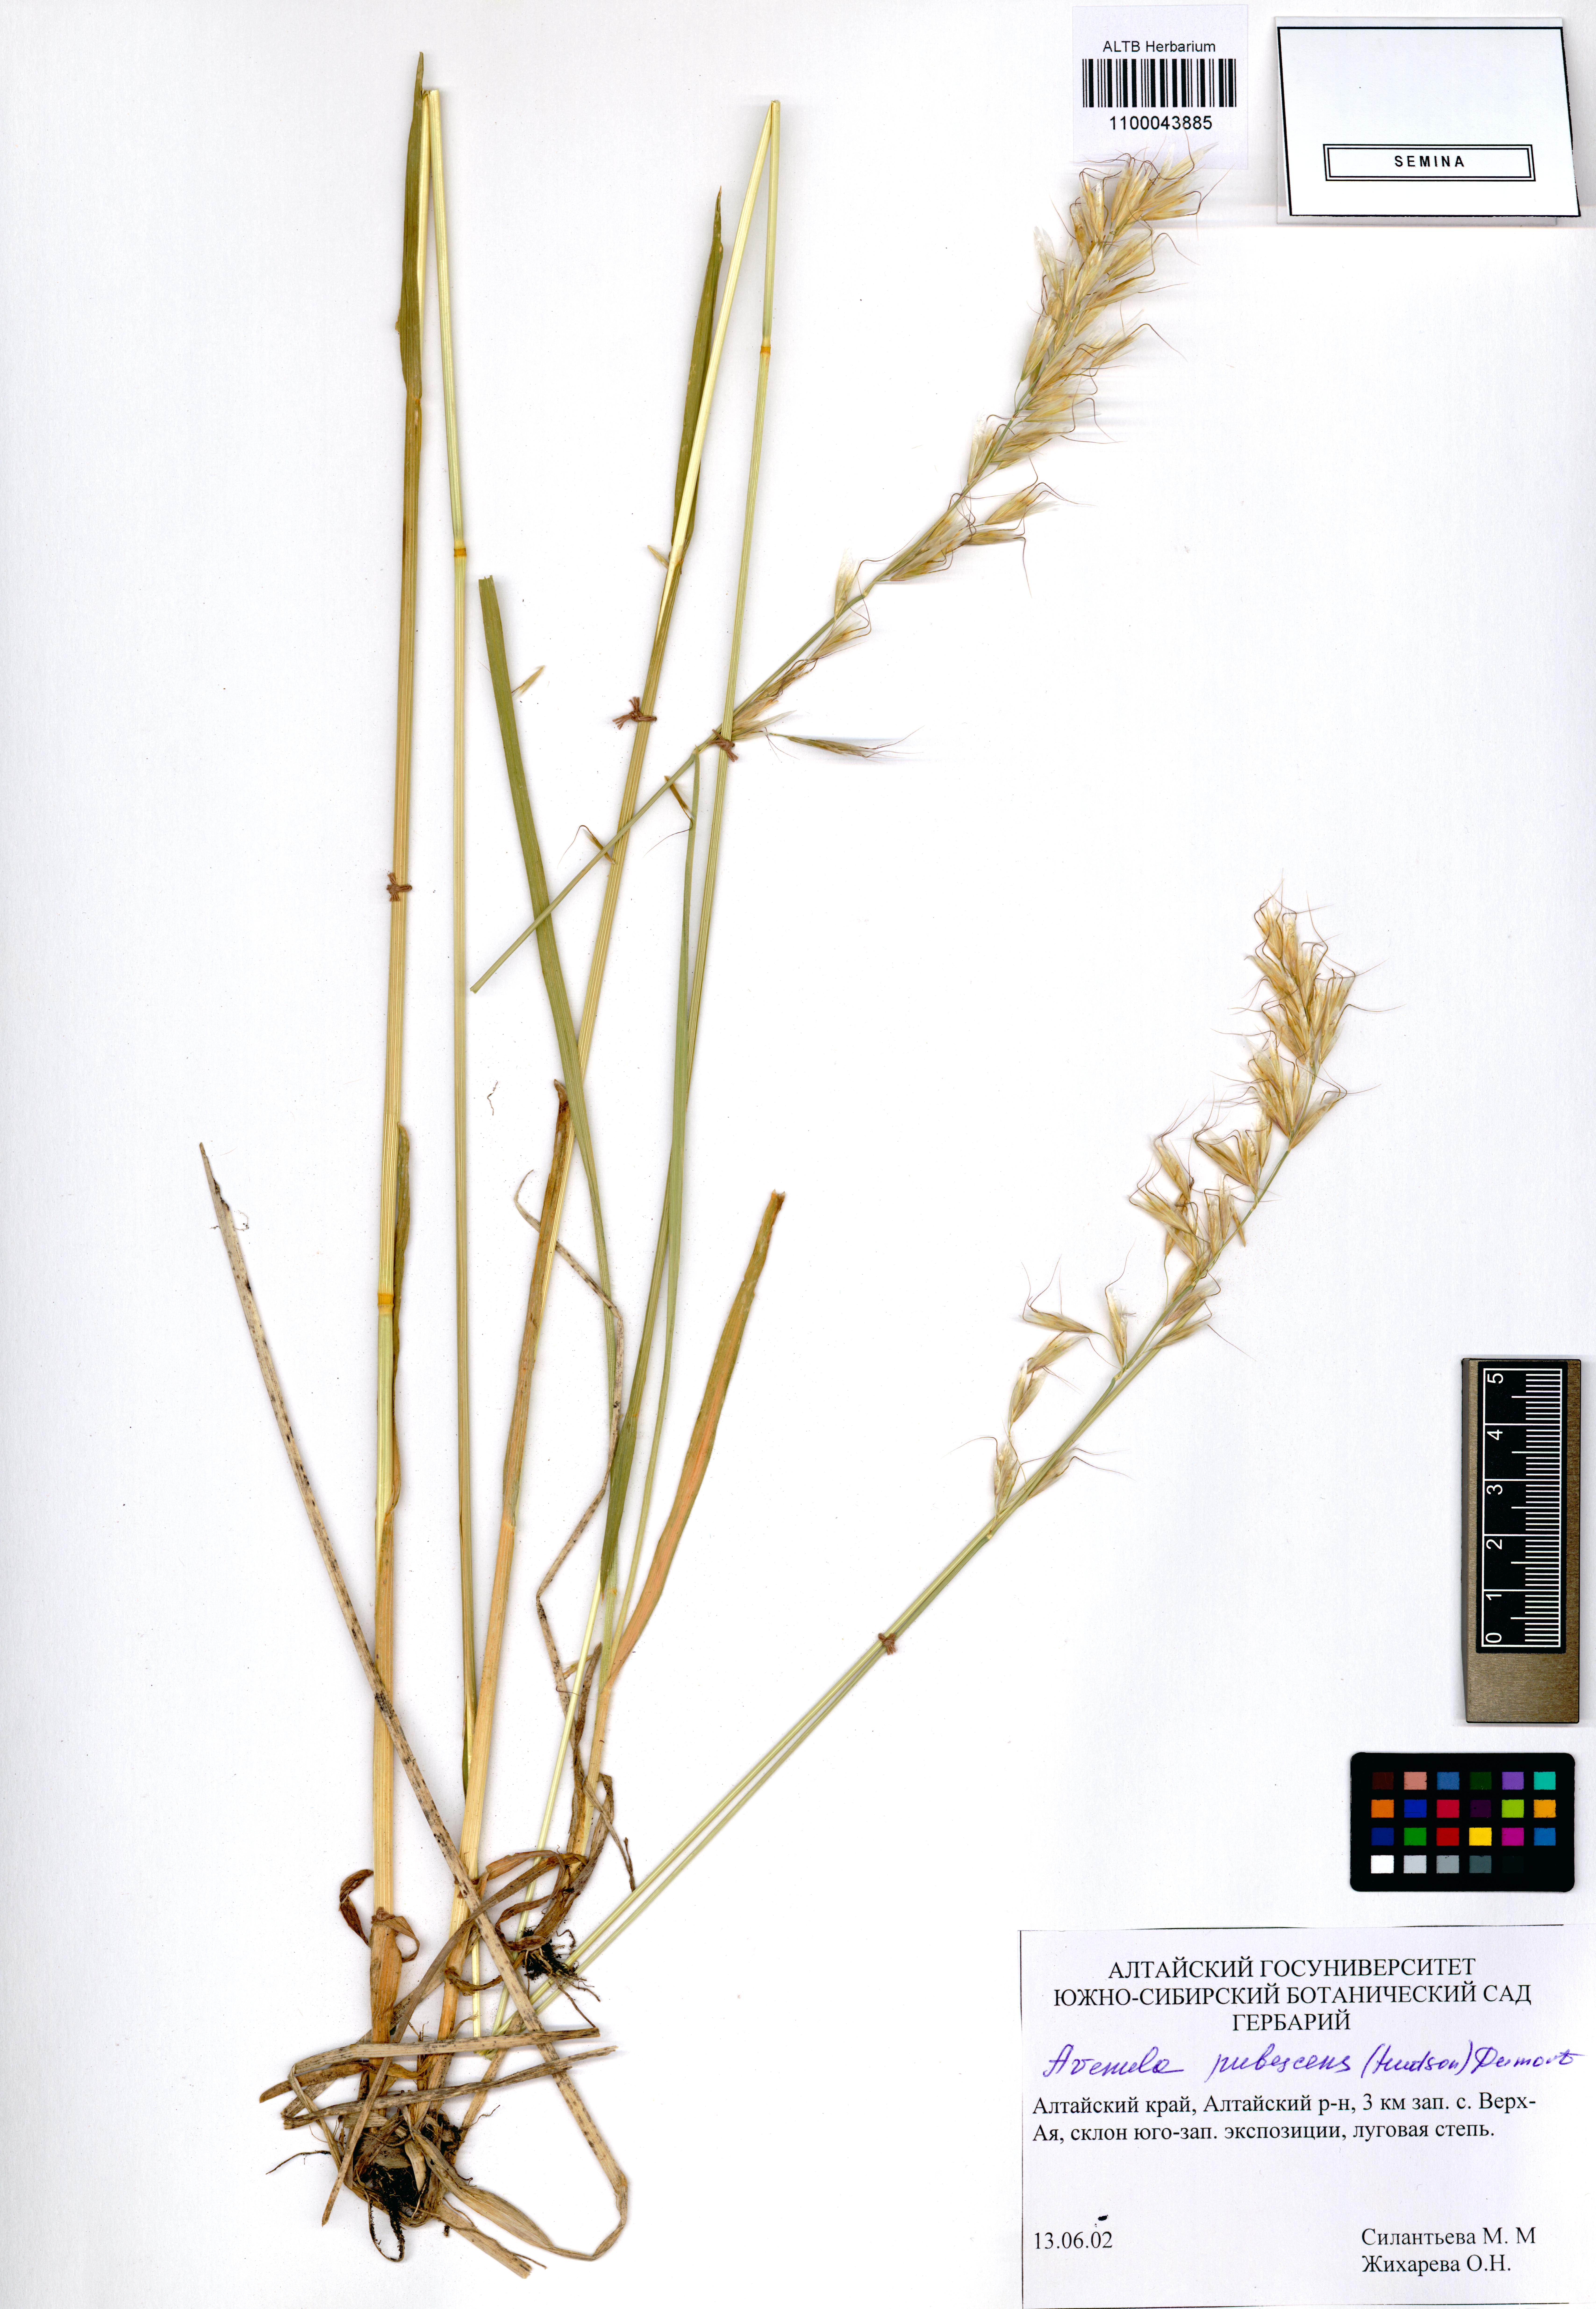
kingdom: Plantae
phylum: Tracheophyta
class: Liliopsida
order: Poales
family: Poaceae
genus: Avenula
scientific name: Avenula pubescens
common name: Downy alpine oatgrass
